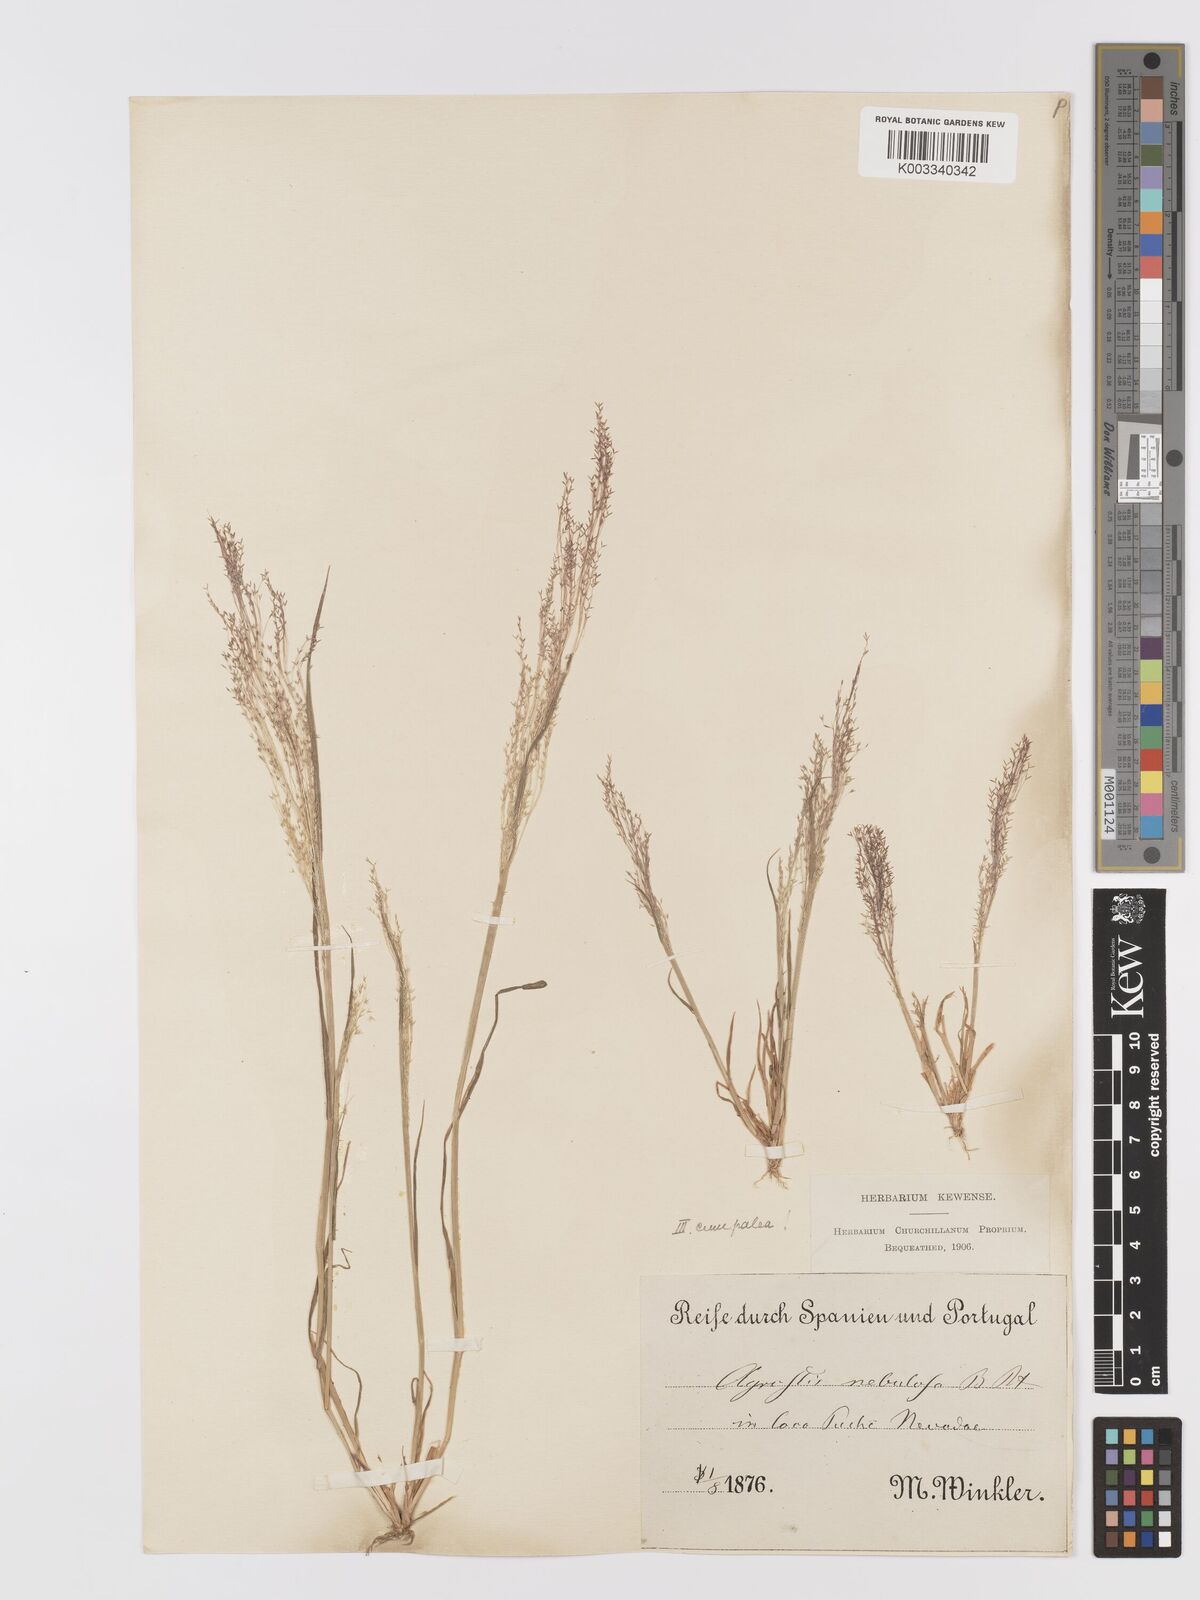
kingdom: Plantae
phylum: Tracheophyta
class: Liliopsida
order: Poales
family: Poaceae
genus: Agrostis
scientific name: Agrostis nebulosa
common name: Cloud grass
